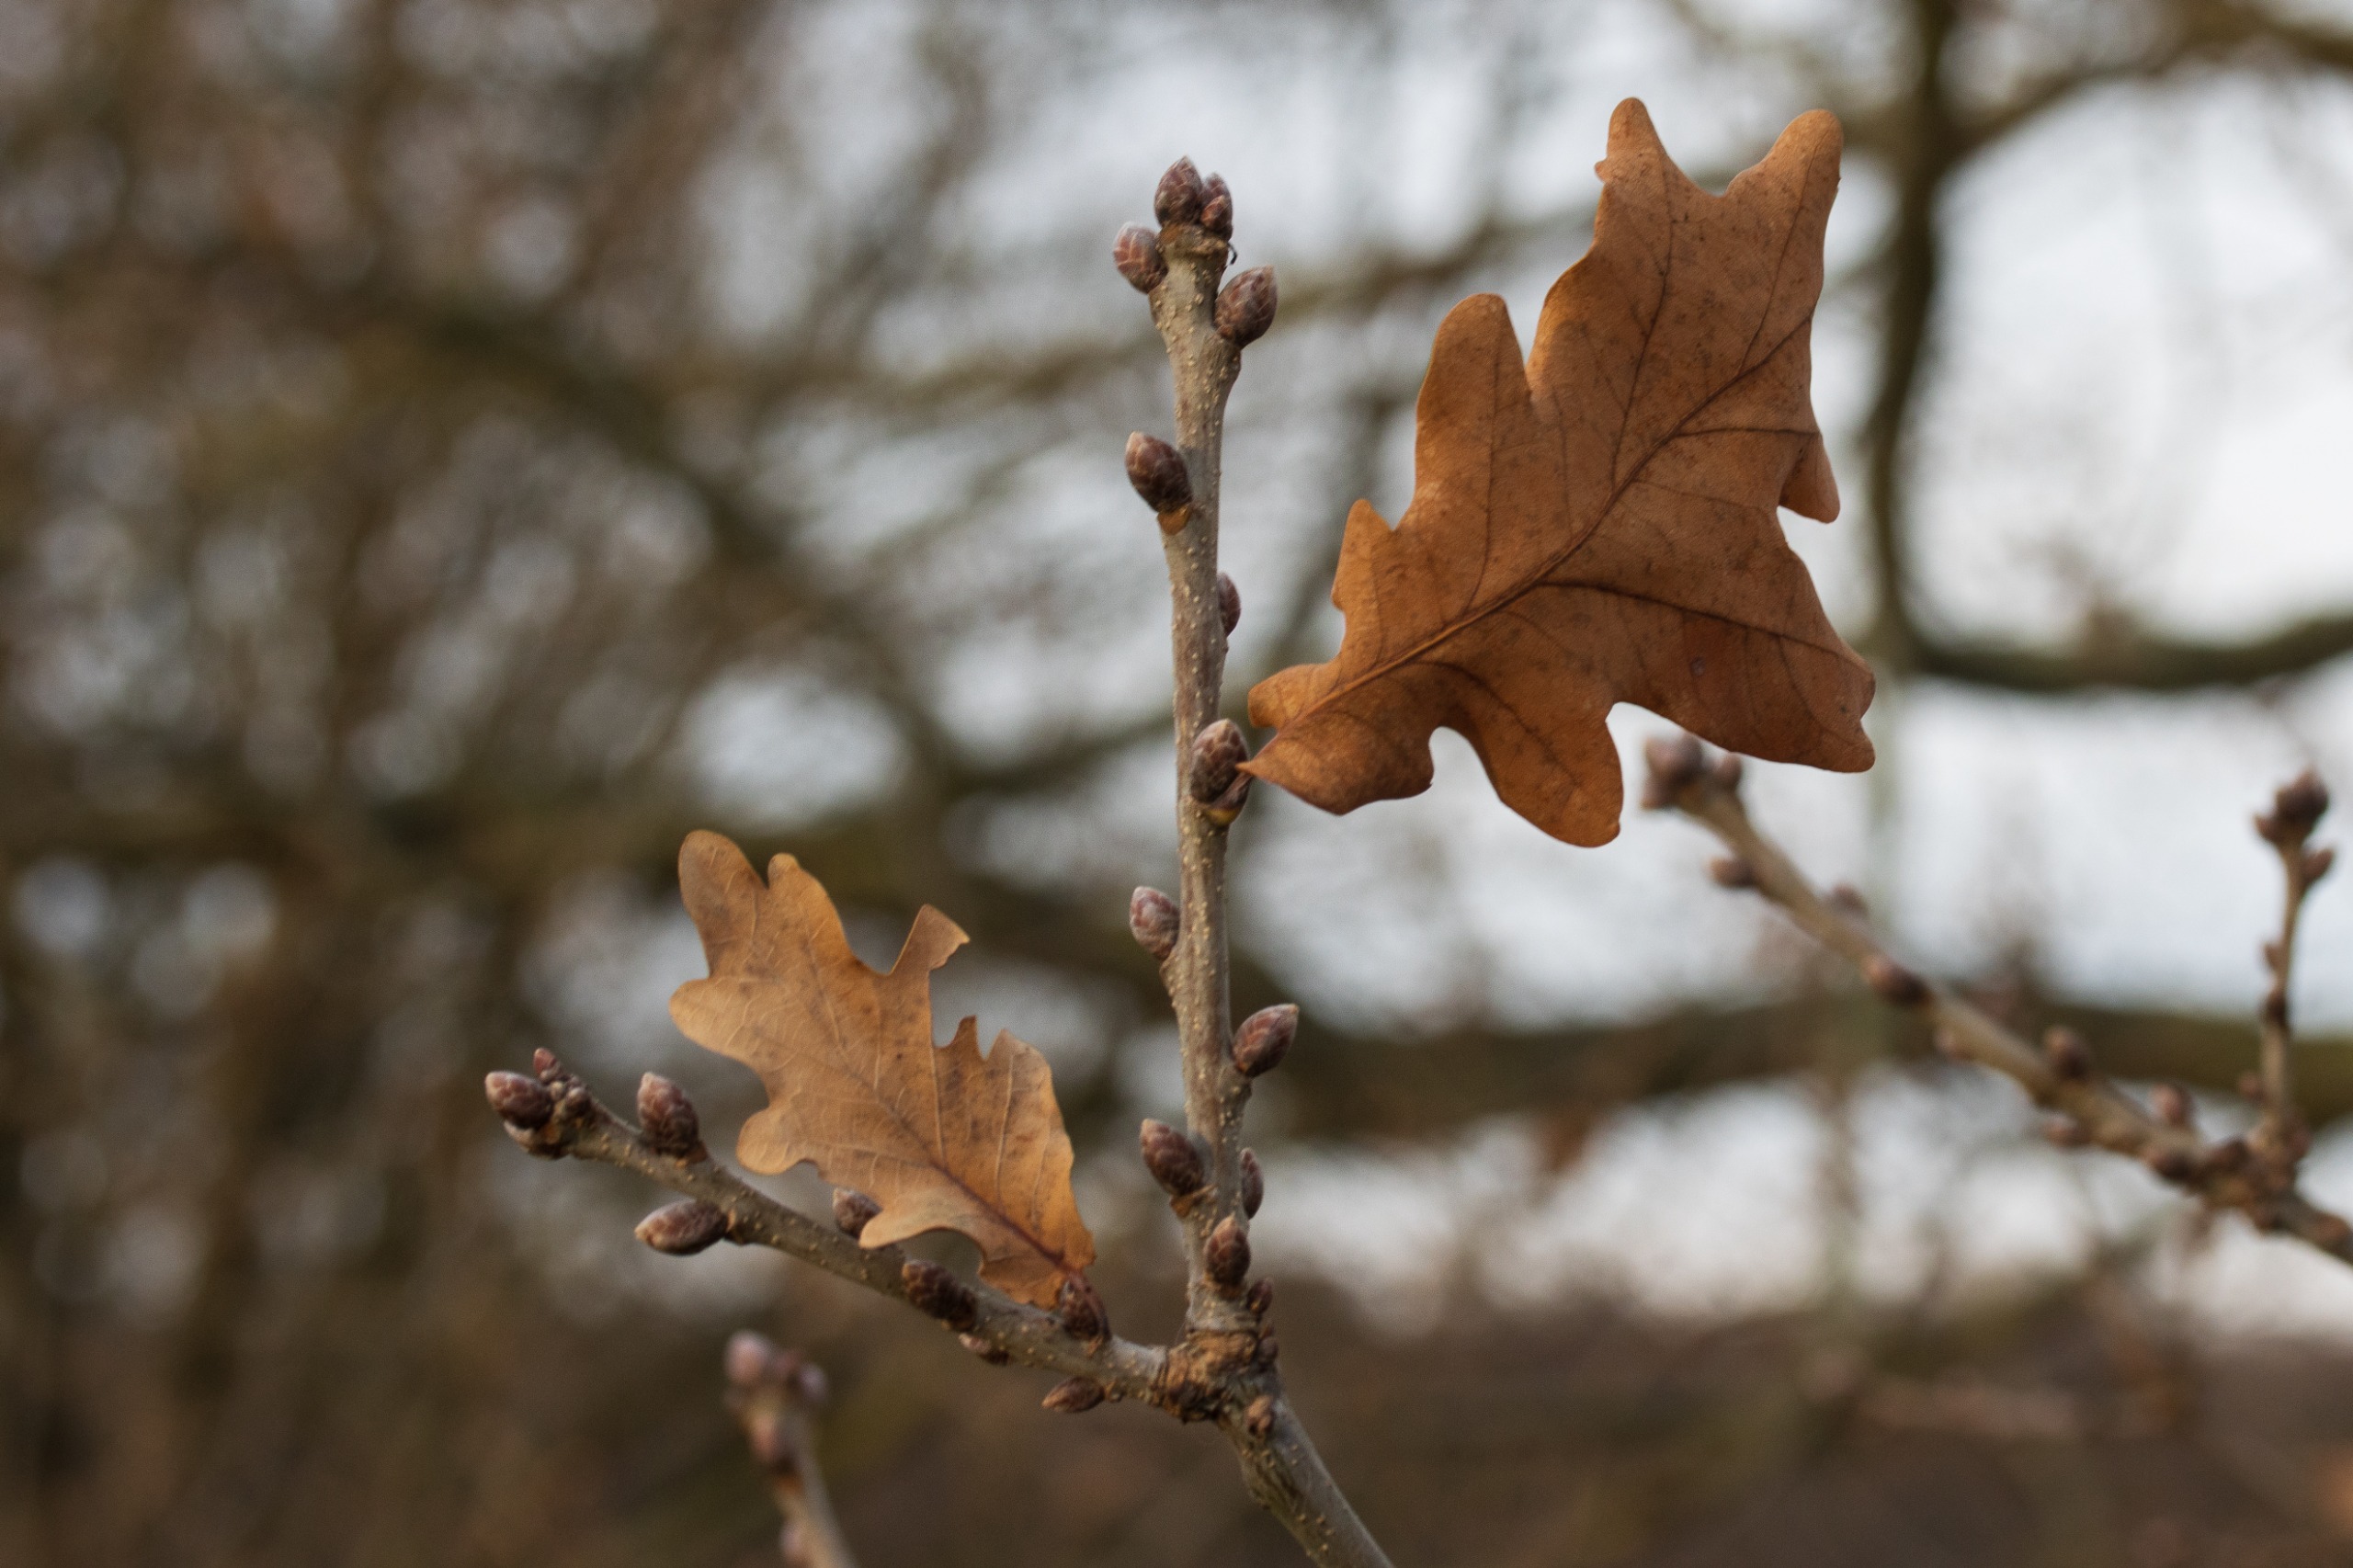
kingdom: Plantae
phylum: Tracheophyta
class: Magnoliopsida
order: Fagales
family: Fagaceae
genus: Quercus
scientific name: Quercus robur
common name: Stilk-eg/almindelig eg
